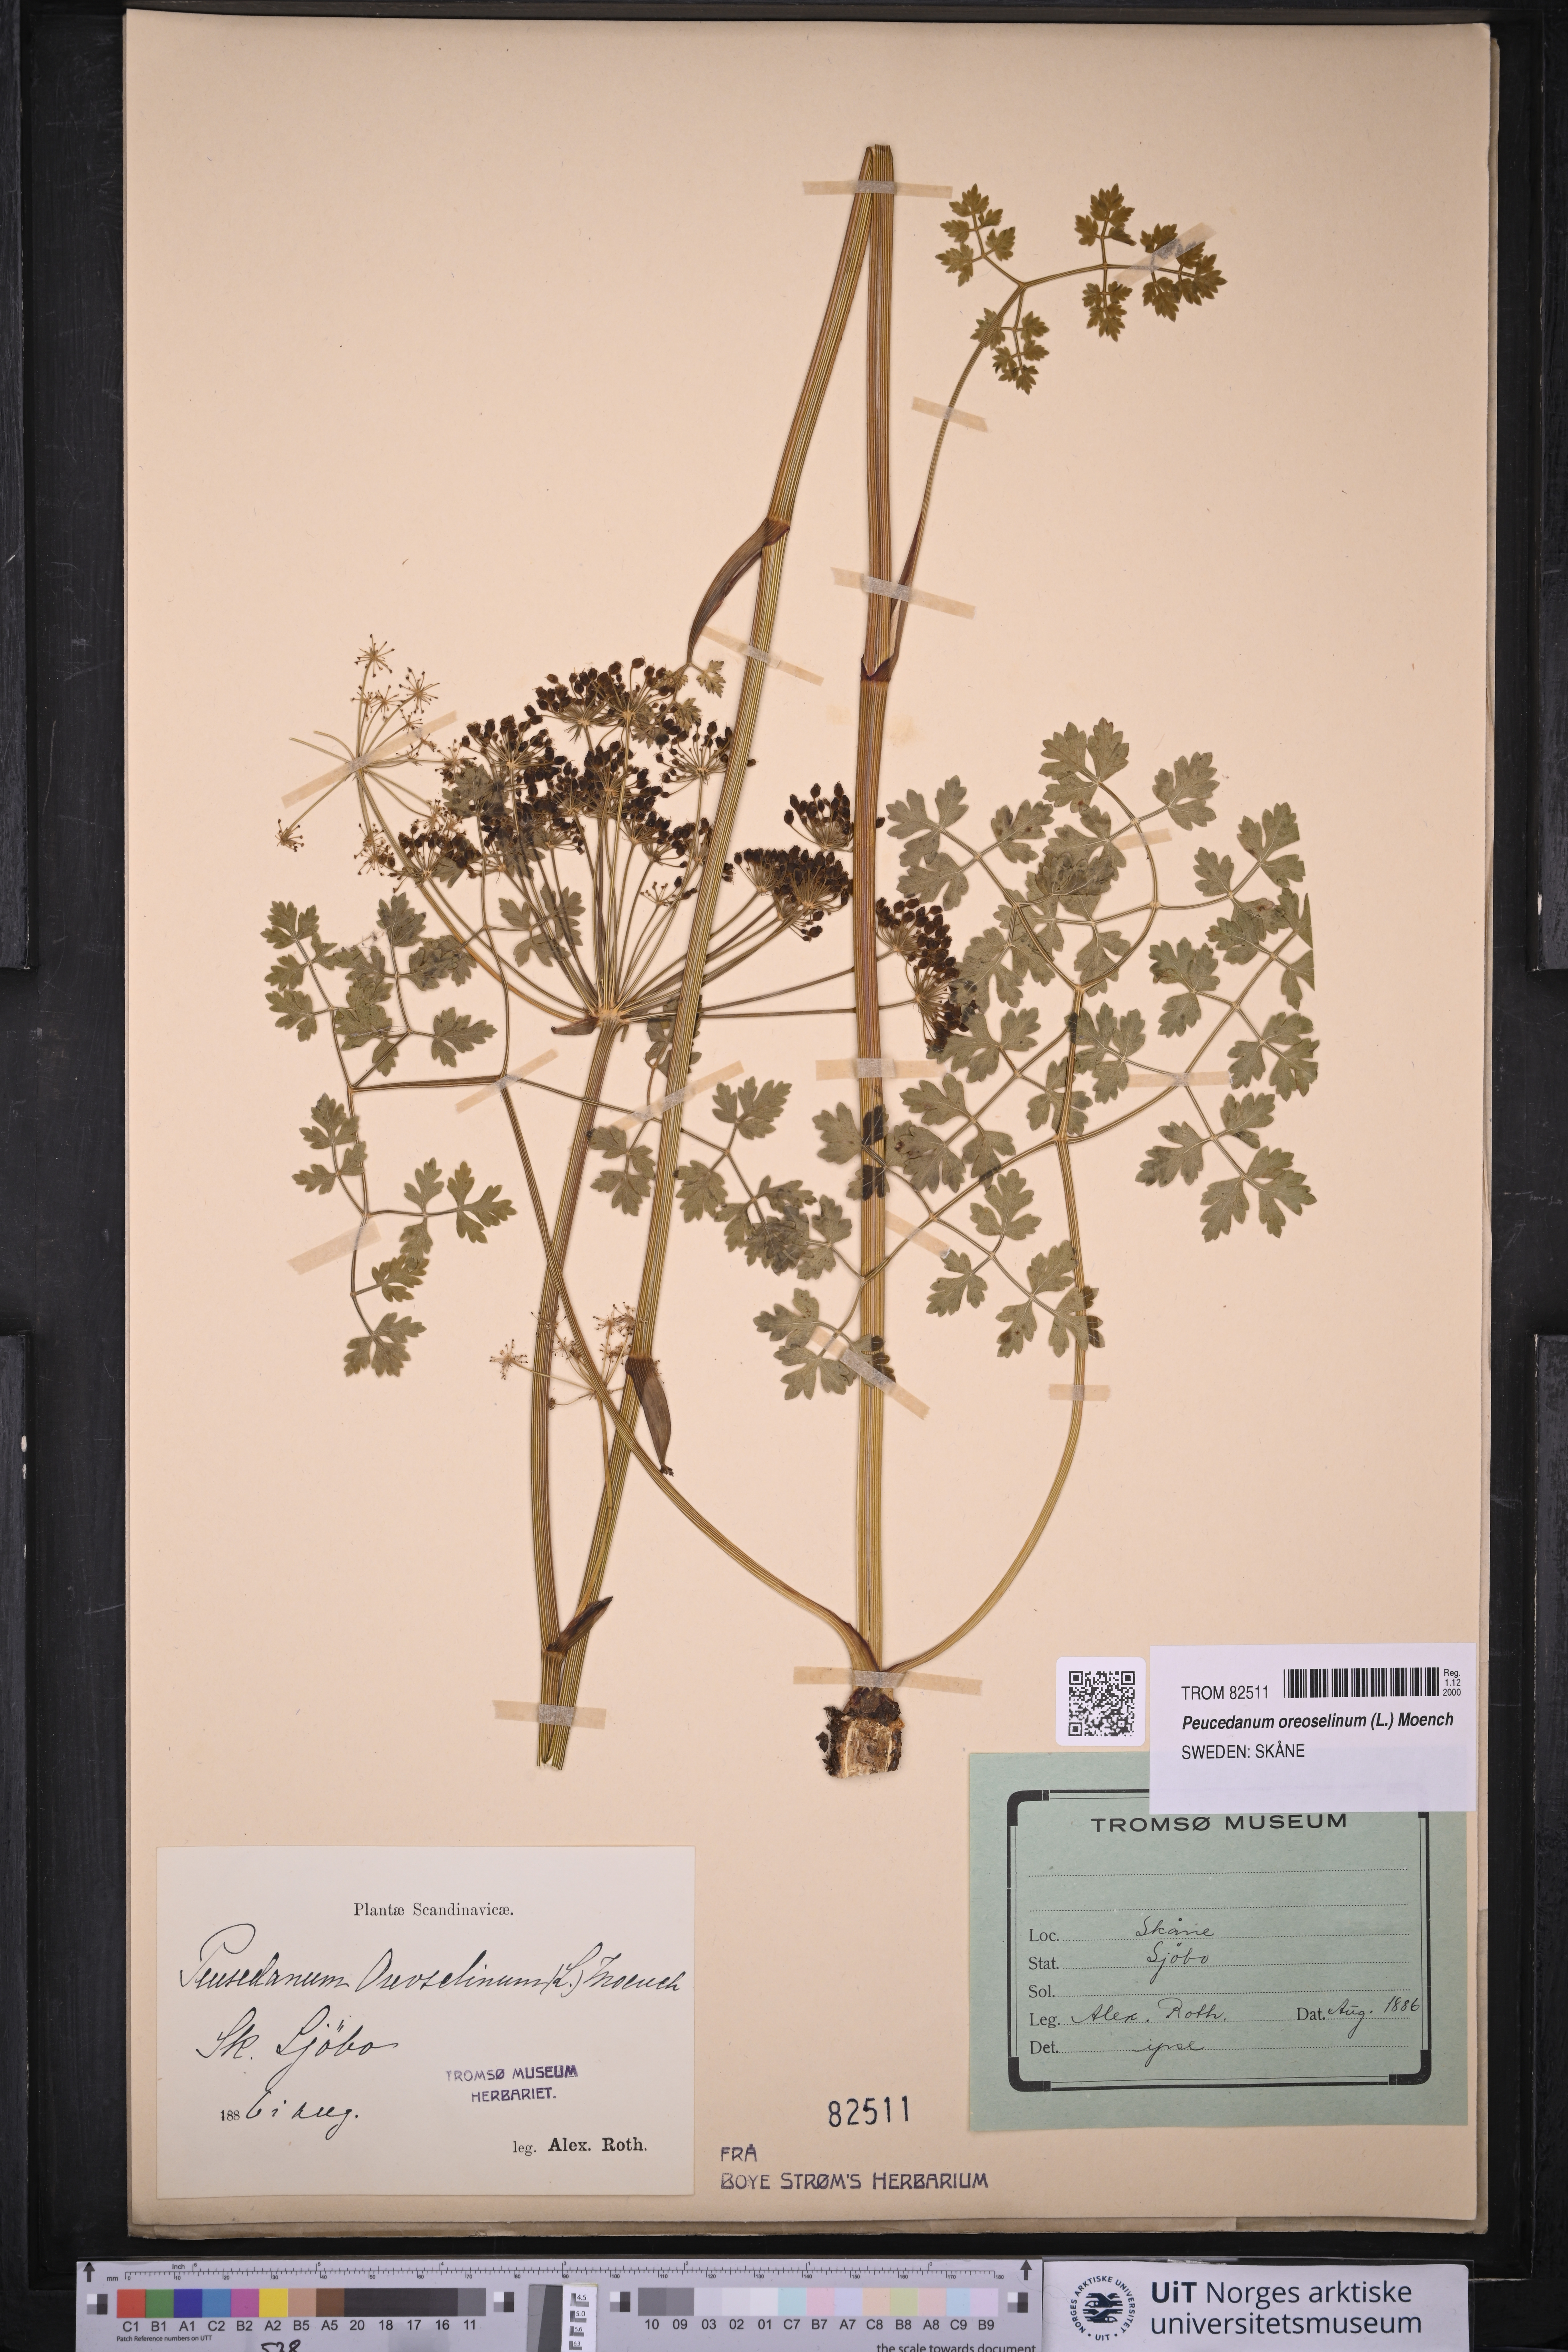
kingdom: Plantae
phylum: Tracheophyta
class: Magnoliopsida
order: Apiales
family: Apiaceae
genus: Oreoselinum
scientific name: Oreoselinum nigrum
